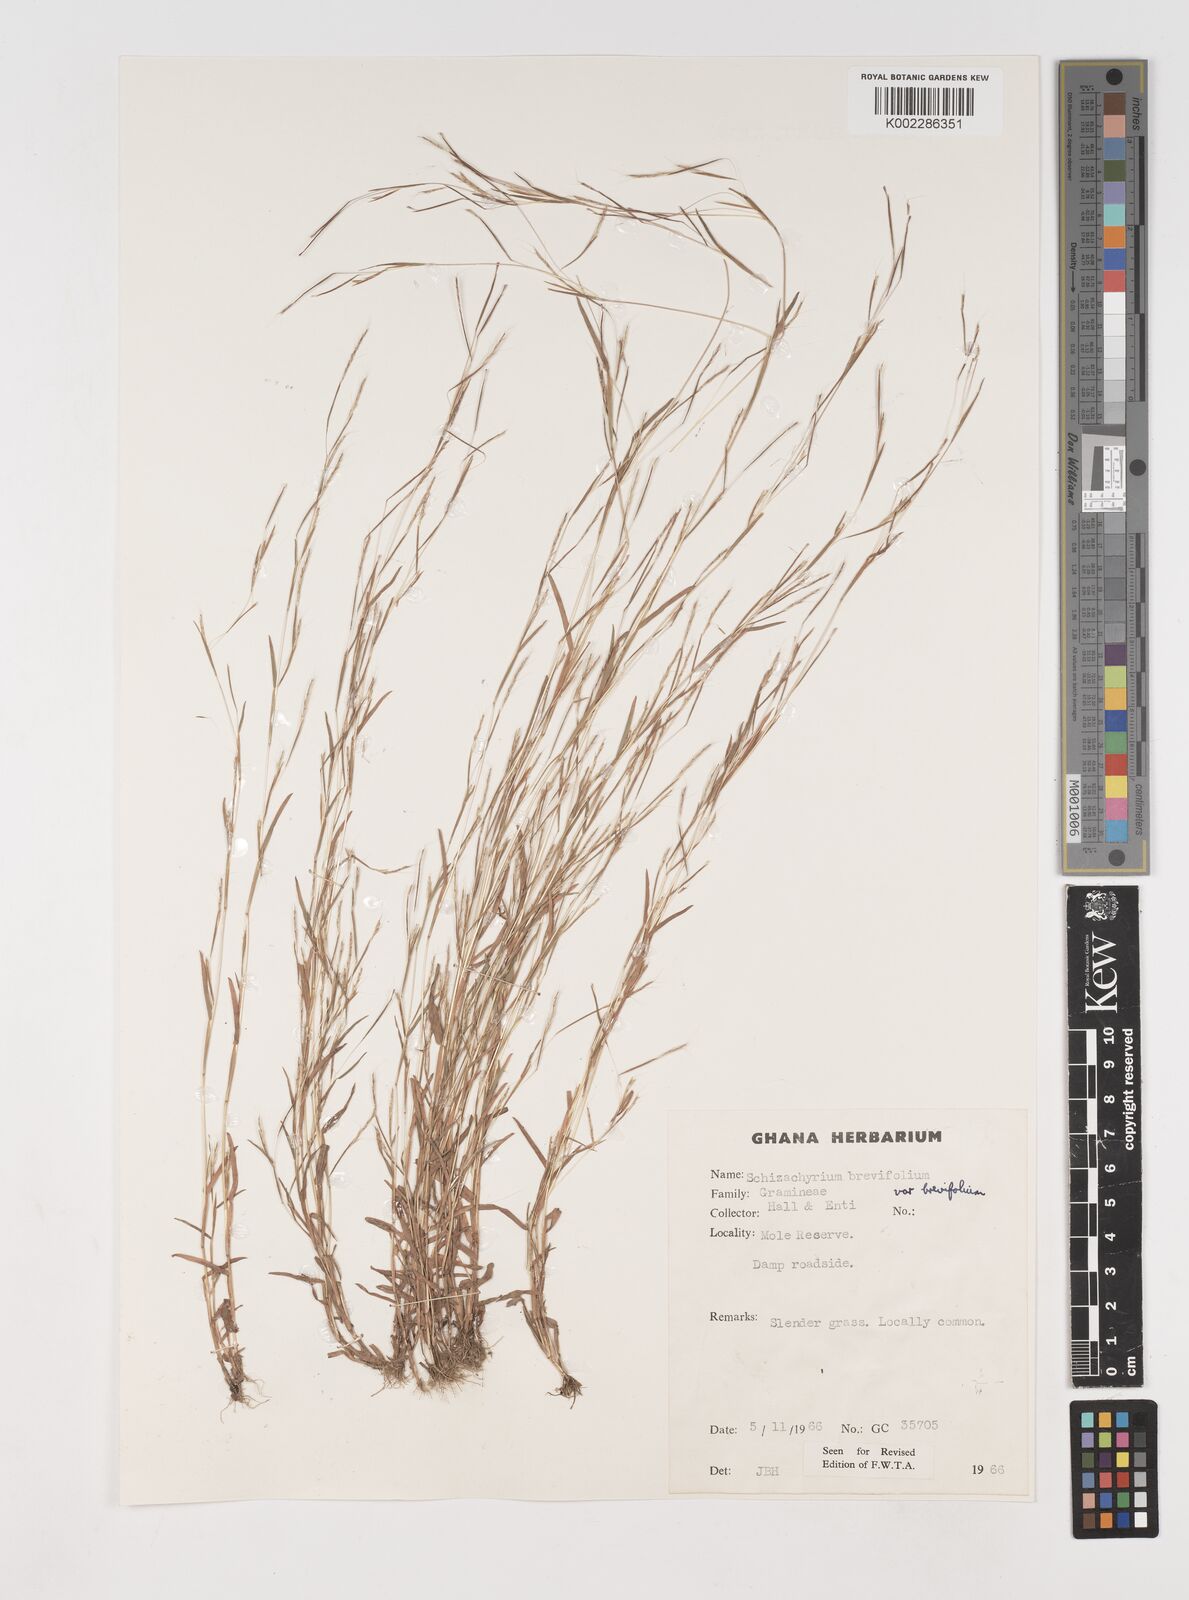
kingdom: Plantae
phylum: Tracheophyta
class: Liliopsida
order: Poales
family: Poaceae
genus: Schizachyrium
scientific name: Schizachyrium brevifolium
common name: Serillo dulce
